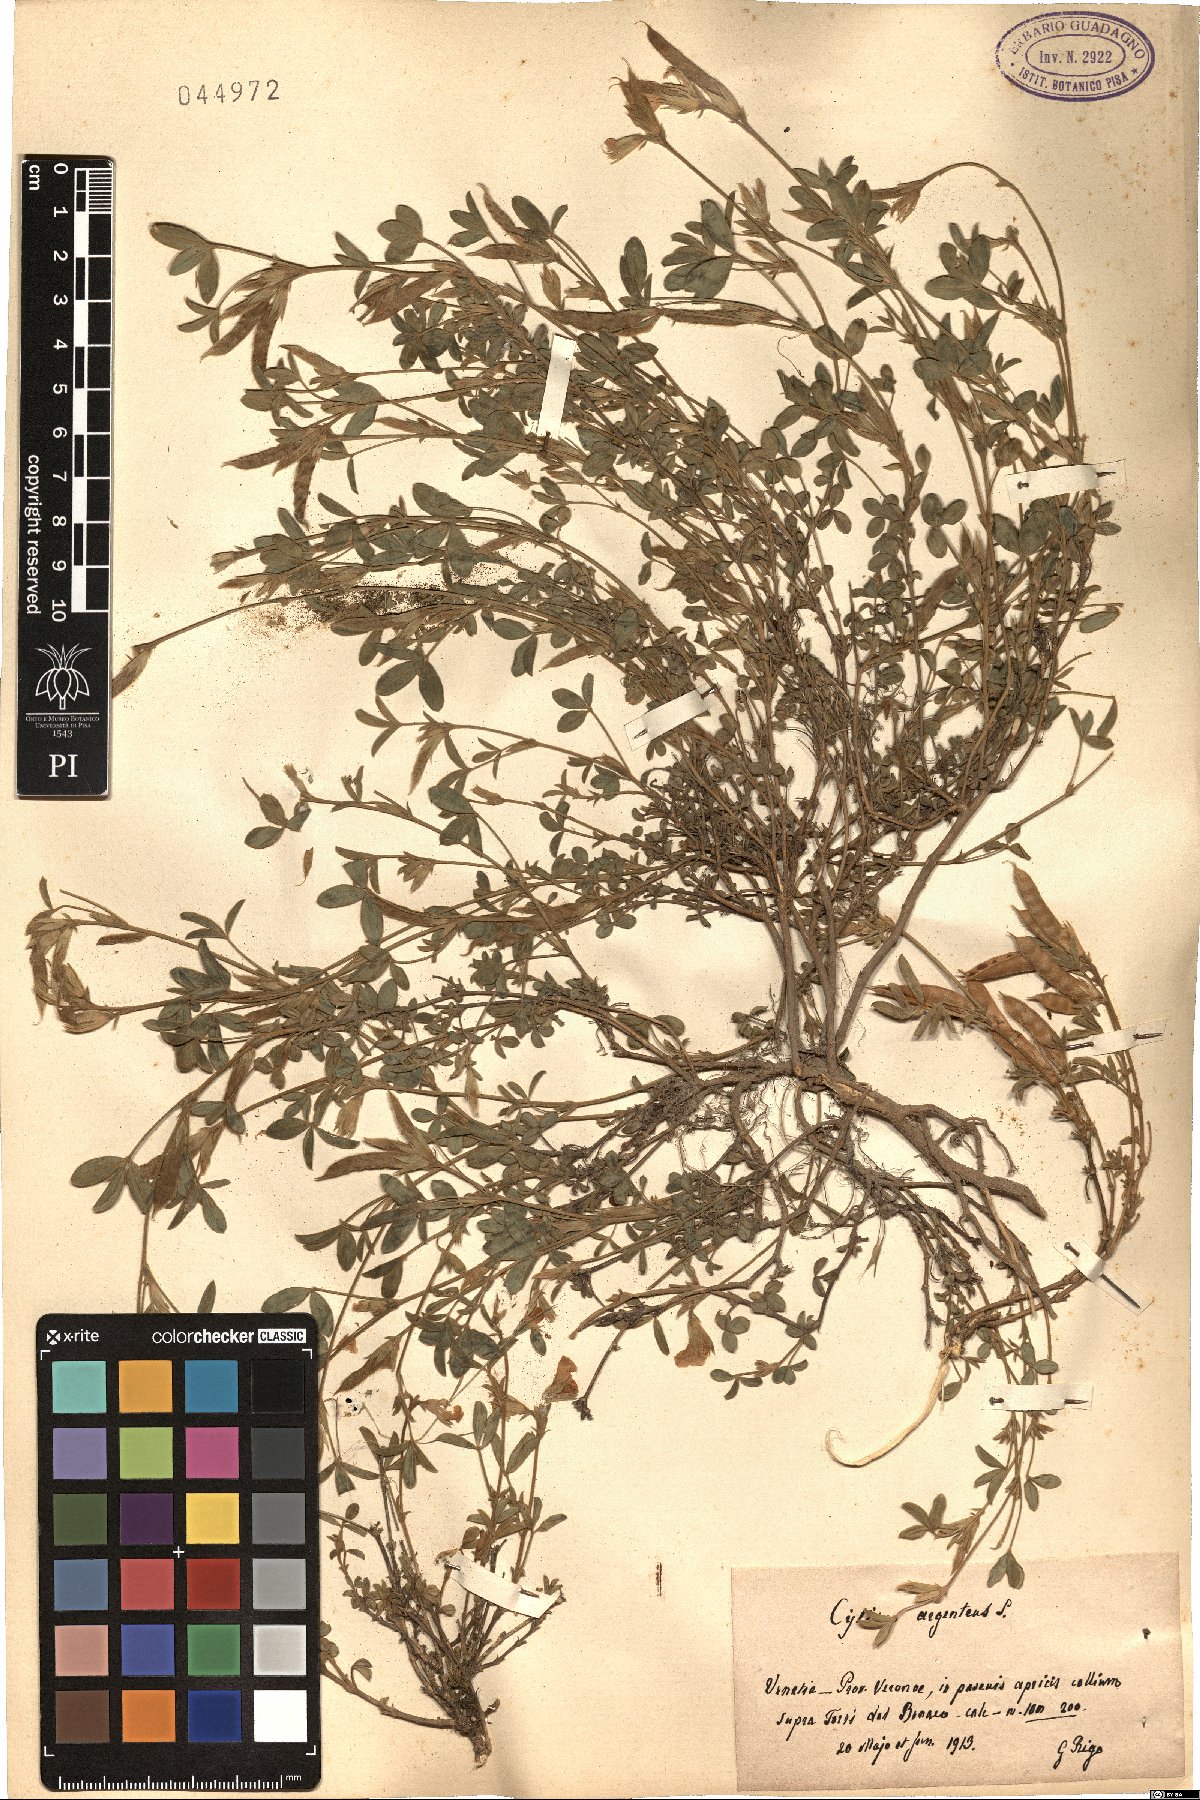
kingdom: Plantae
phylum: Tracheophyta
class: Magnoliopsida
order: Fabales
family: Fabaceae
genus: Cytisophyllum
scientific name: Cytisophyllum Cytisus argenteus
